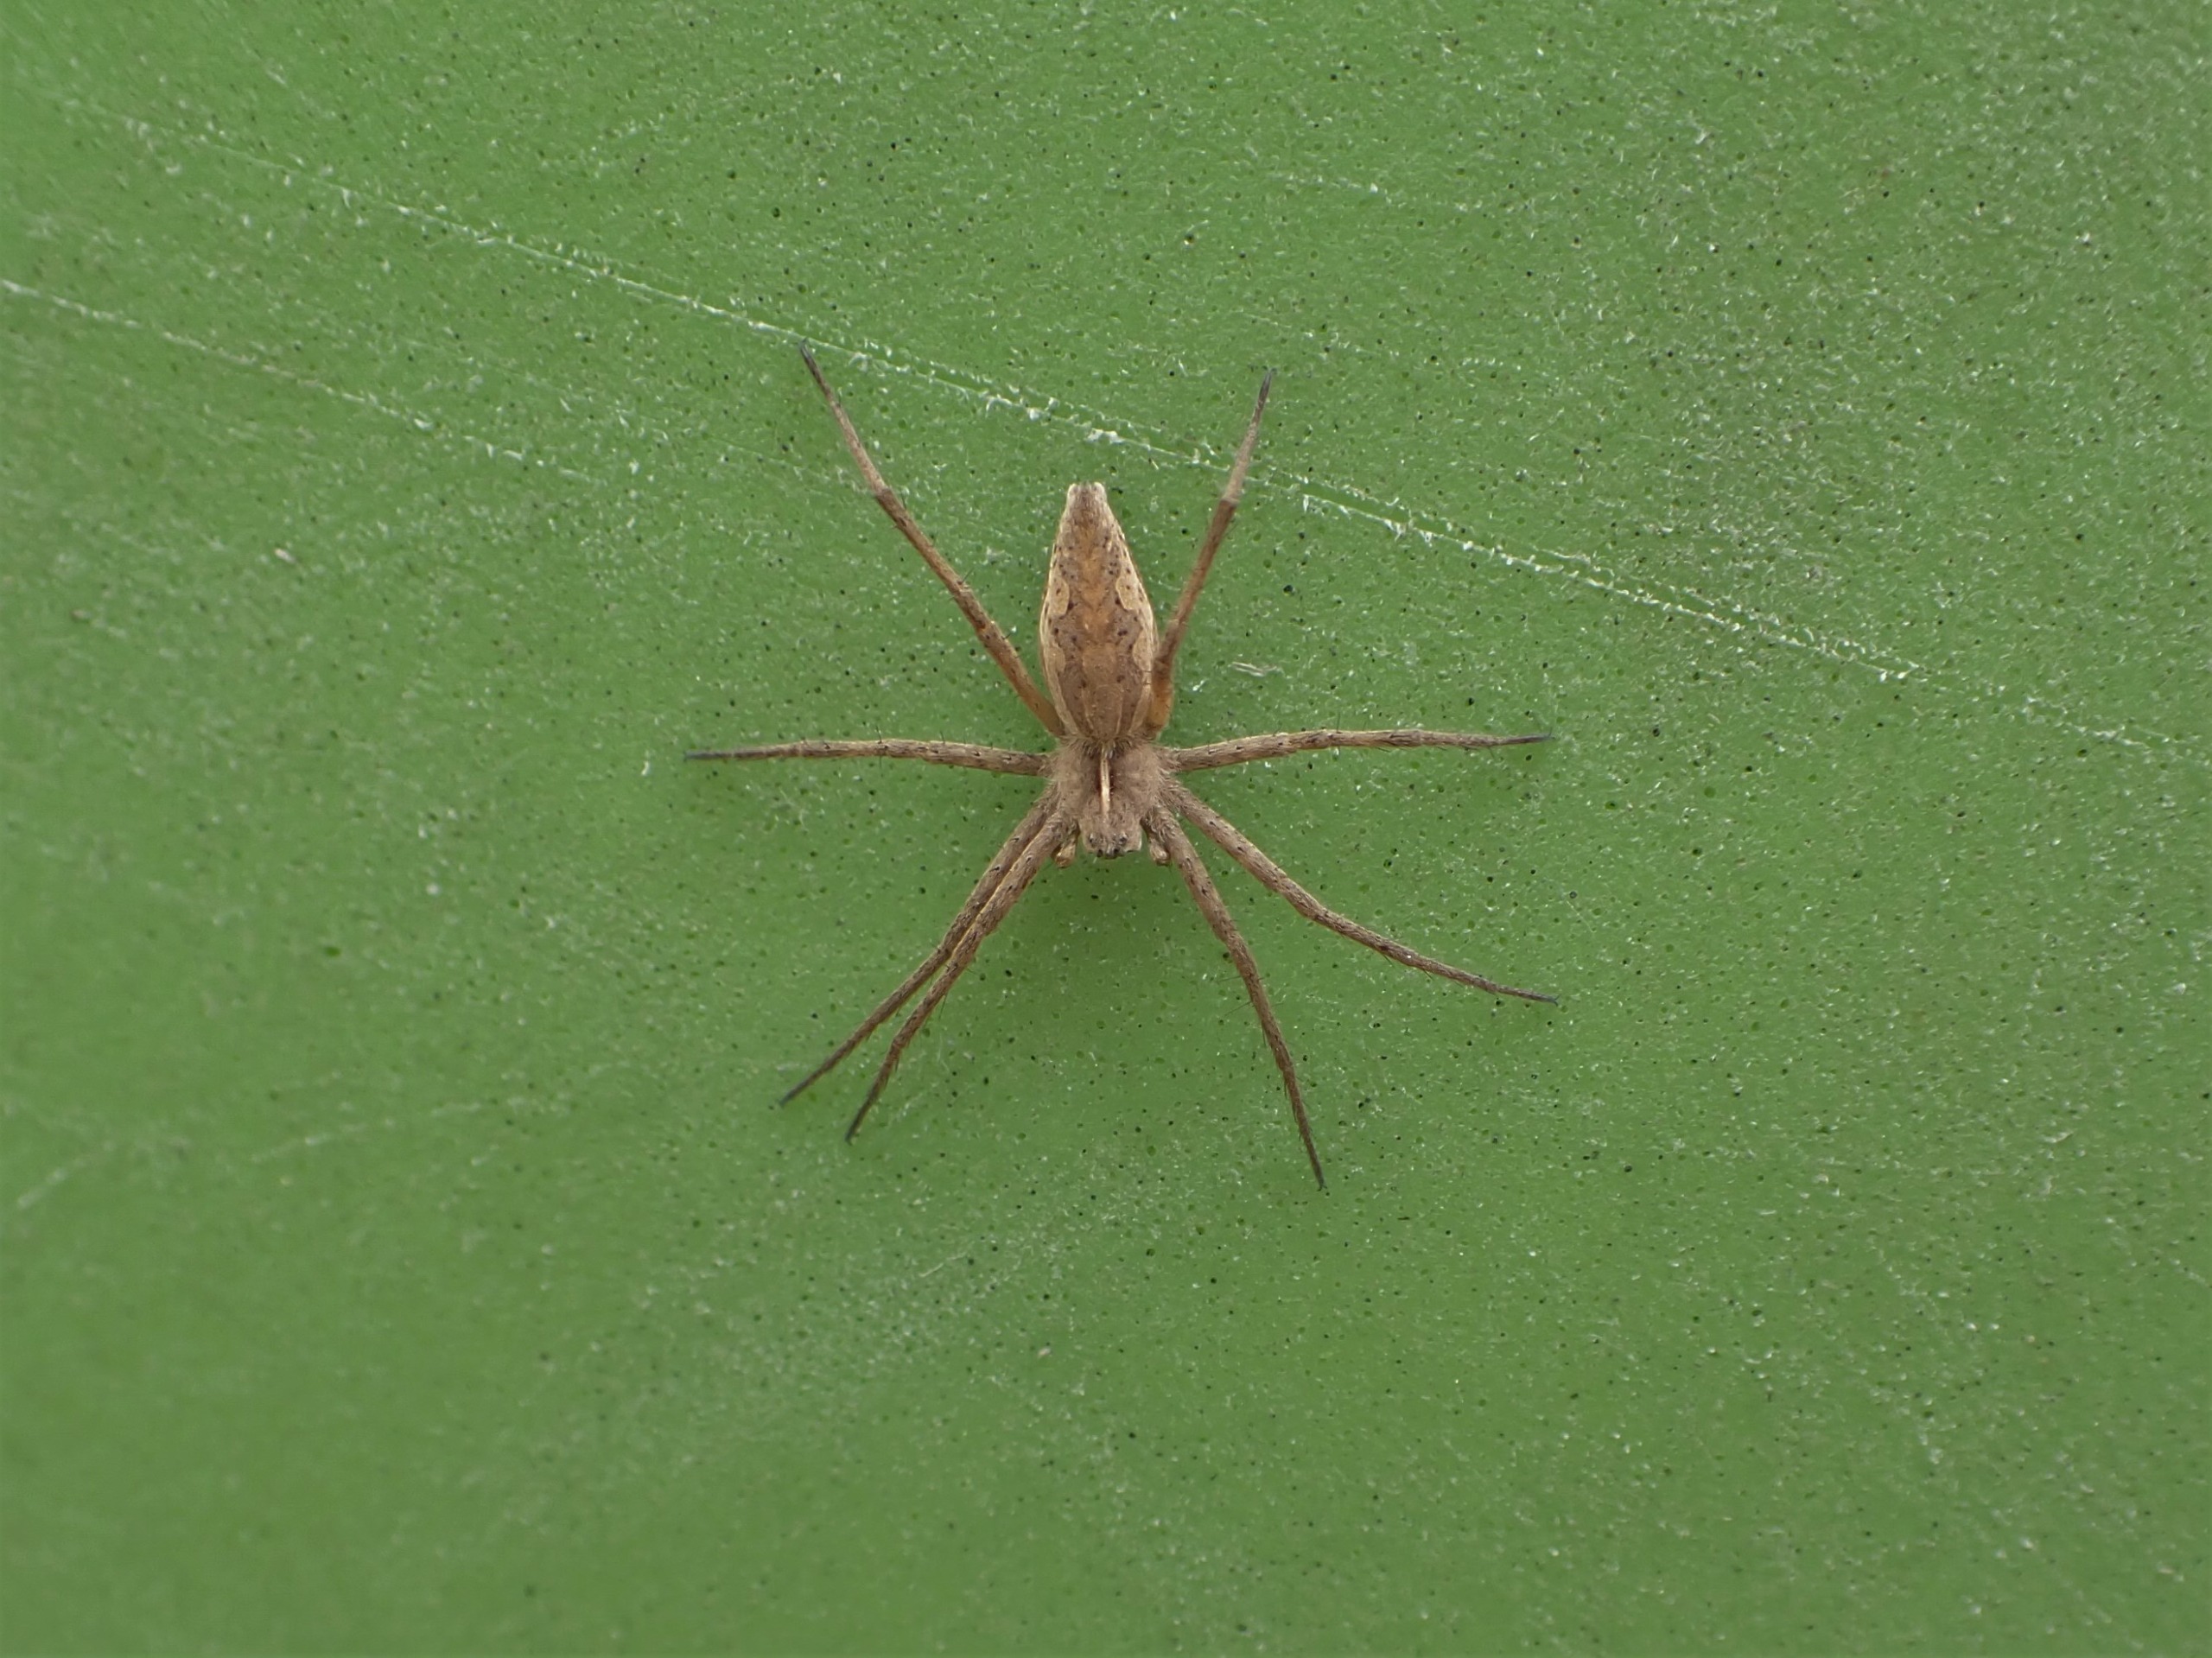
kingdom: Animalia
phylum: Arthropoda
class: Arachnida
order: Araneae
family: Pisauridae
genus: Pisaura
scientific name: Pisaura mirabilis
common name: Almindelig rovedderkop
